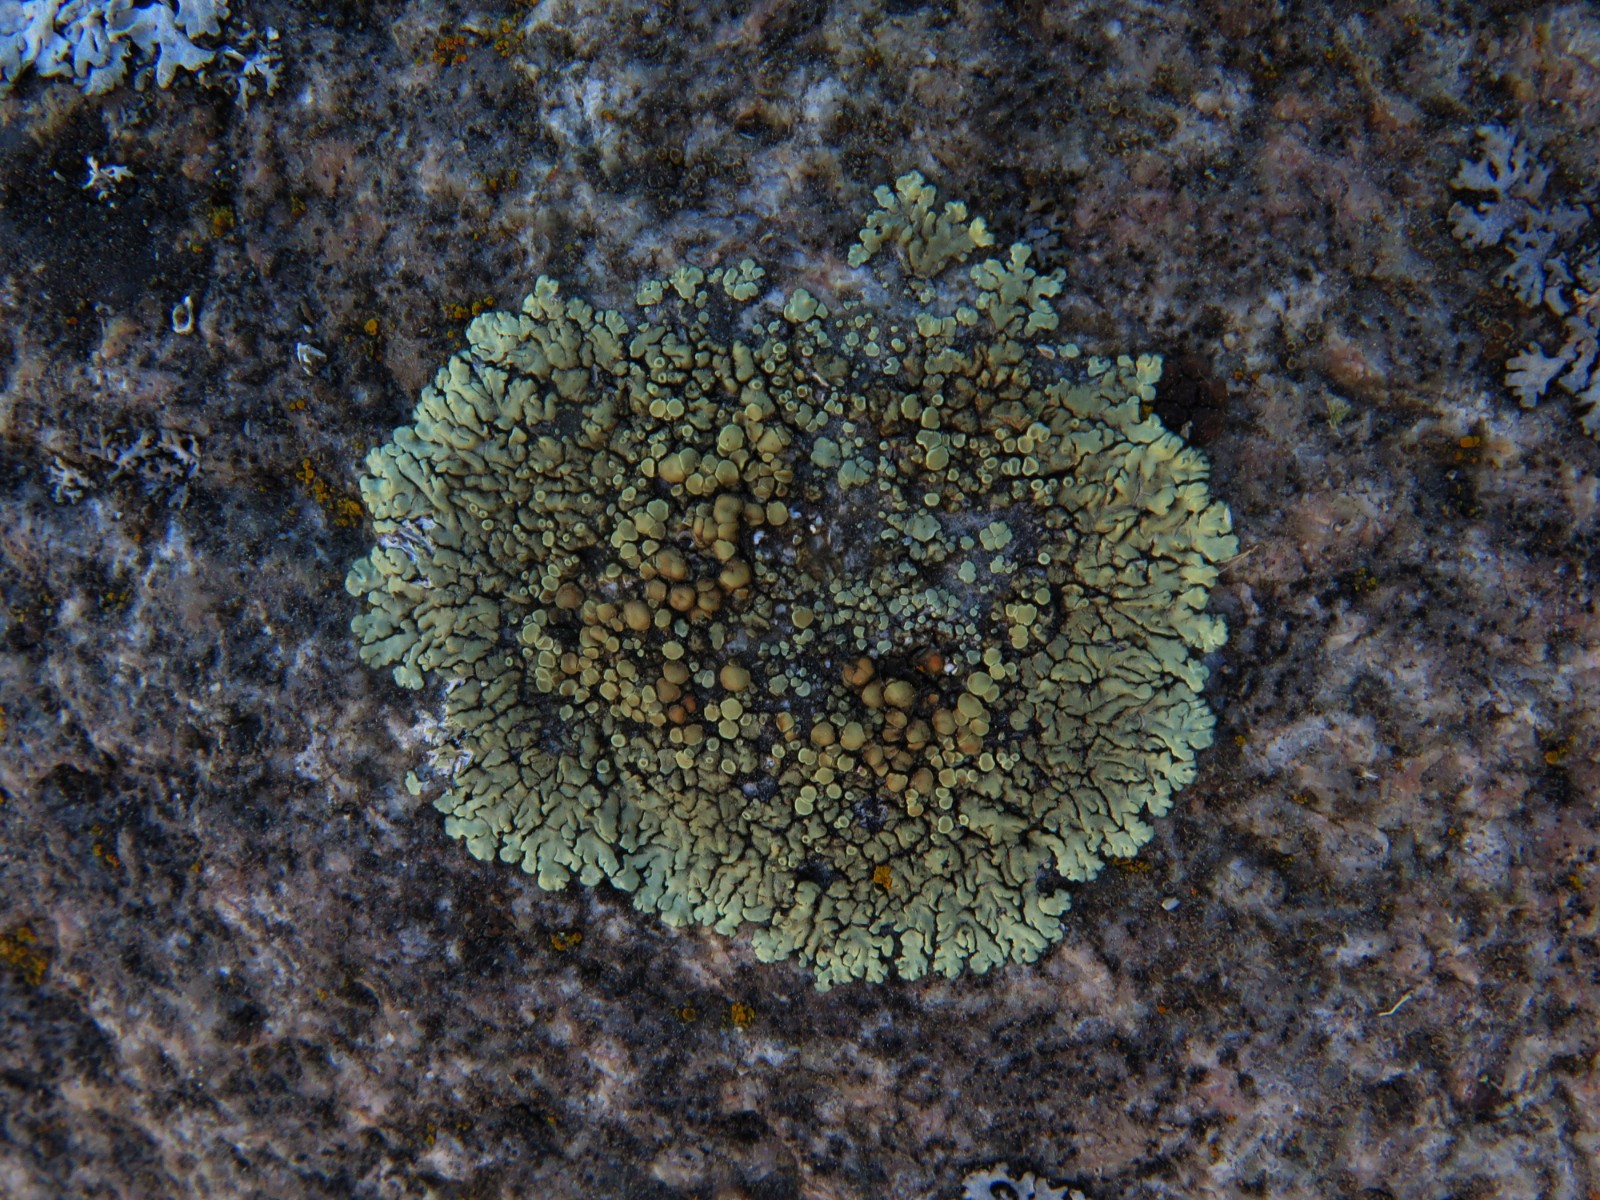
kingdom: Fungi
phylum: Ascomycota
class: Lecanoromycetes
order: Lecanorales
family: Lecanoraceae
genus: Protoparmeliopsis
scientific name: Protoparmeliopsis muralis
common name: randfliget kantskivelav
